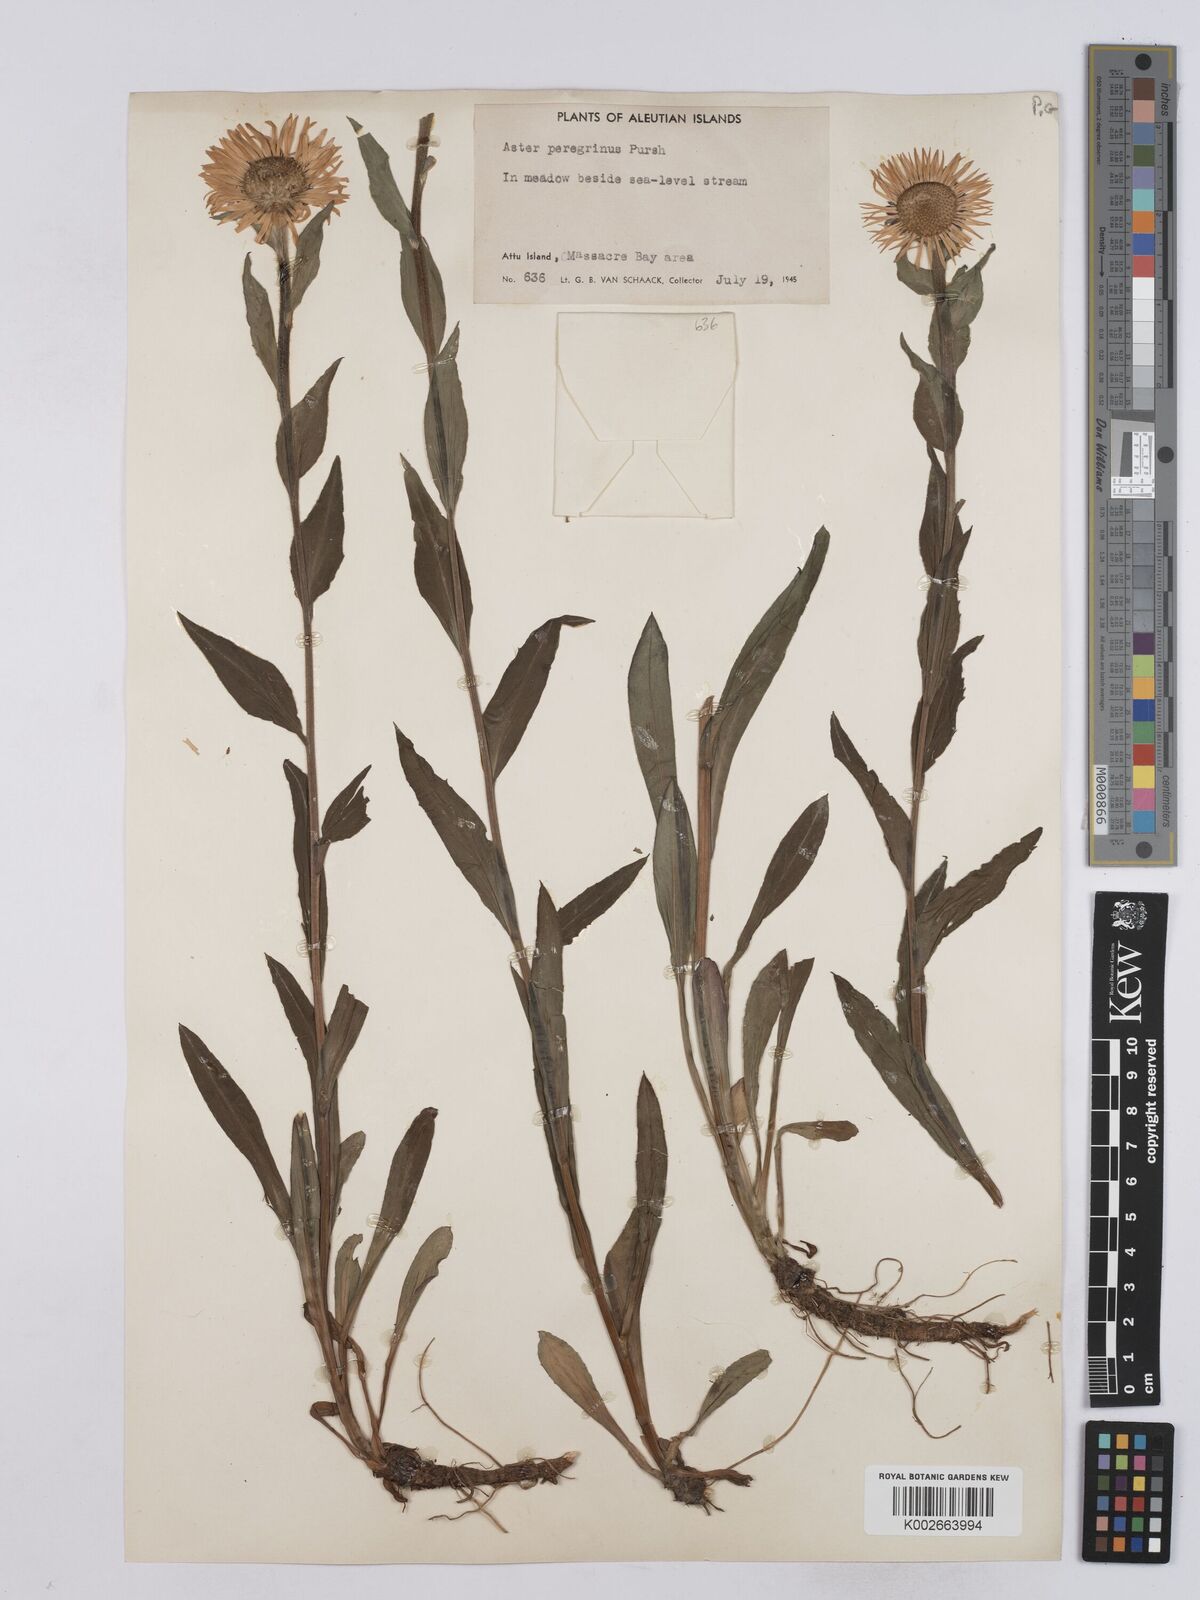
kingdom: Plantae
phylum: Tracheophyta
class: Magnoliopsida
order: Asterales
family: Asteraceae
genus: Erigeron
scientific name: Erigeron peregrinus
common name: Peregrine fleabane
